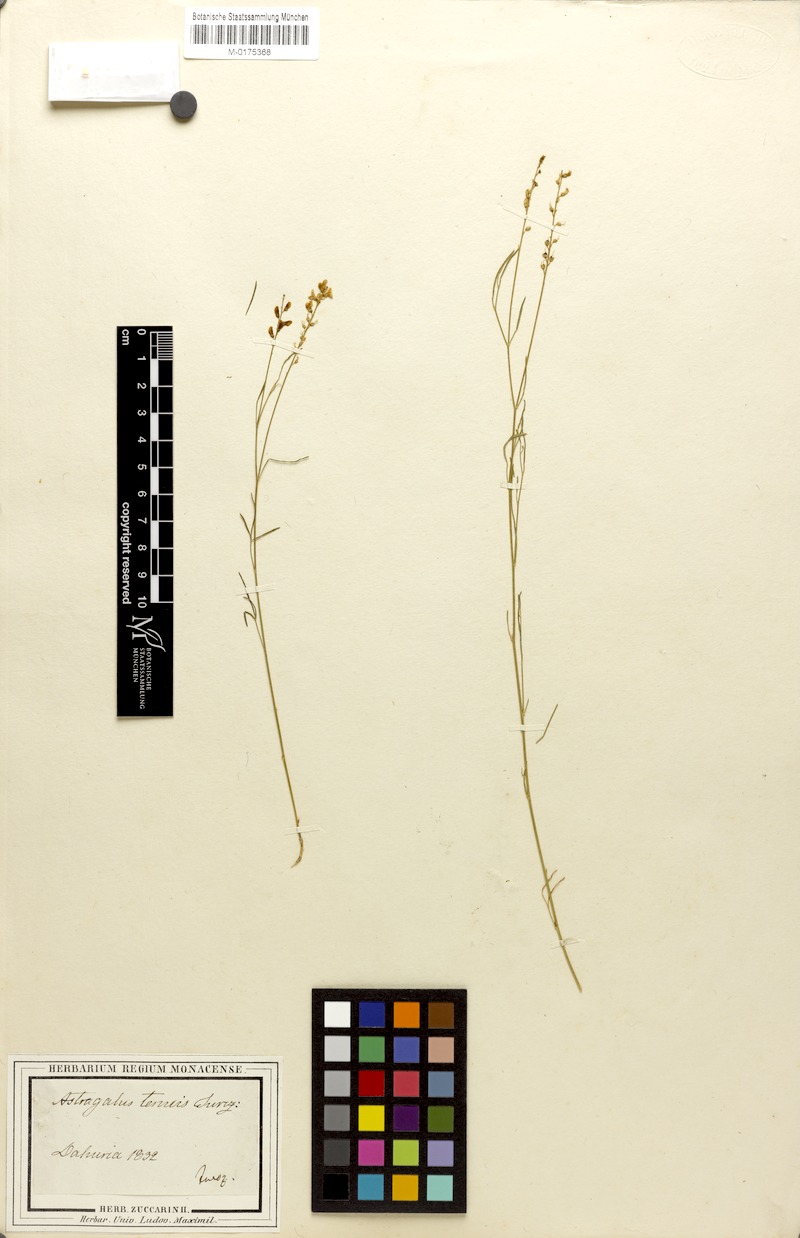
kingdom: Plantae
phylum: Tracheophyta
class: Magnoliopsida
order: Fabales
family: Fabaceae
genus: Astragalus
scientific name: Astragalus tenuis
